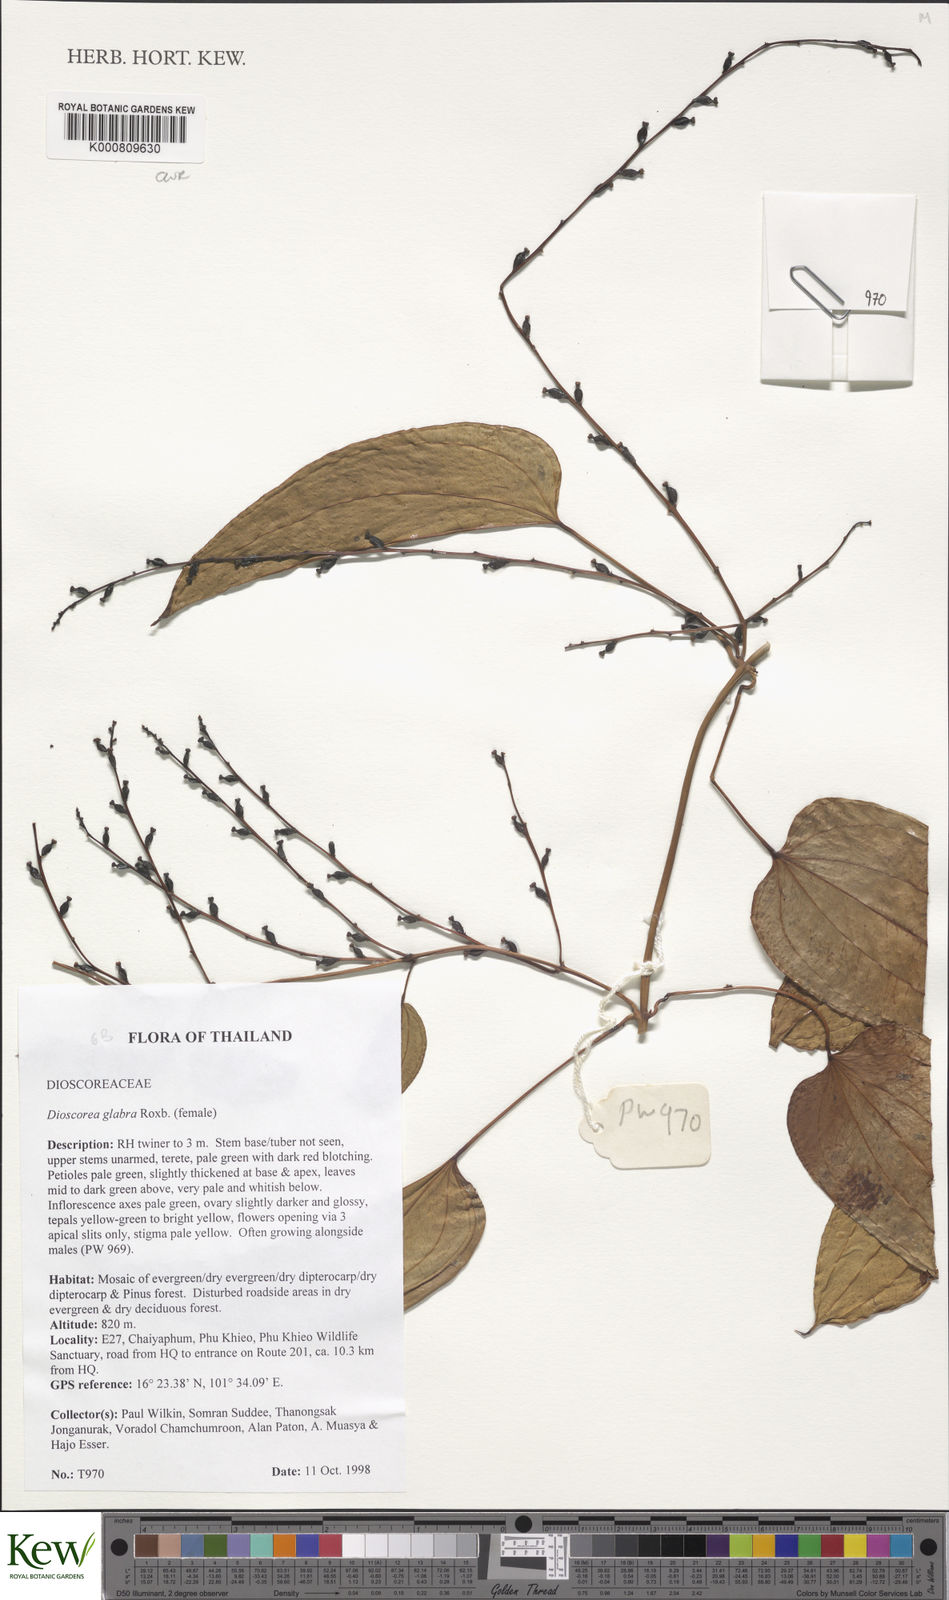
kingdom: Plantae
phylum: Tracheophyta
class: Liliopsida
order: Dioscoreales
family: Dioscoreaceae
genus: Dioscorea
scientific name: Dioscorea
